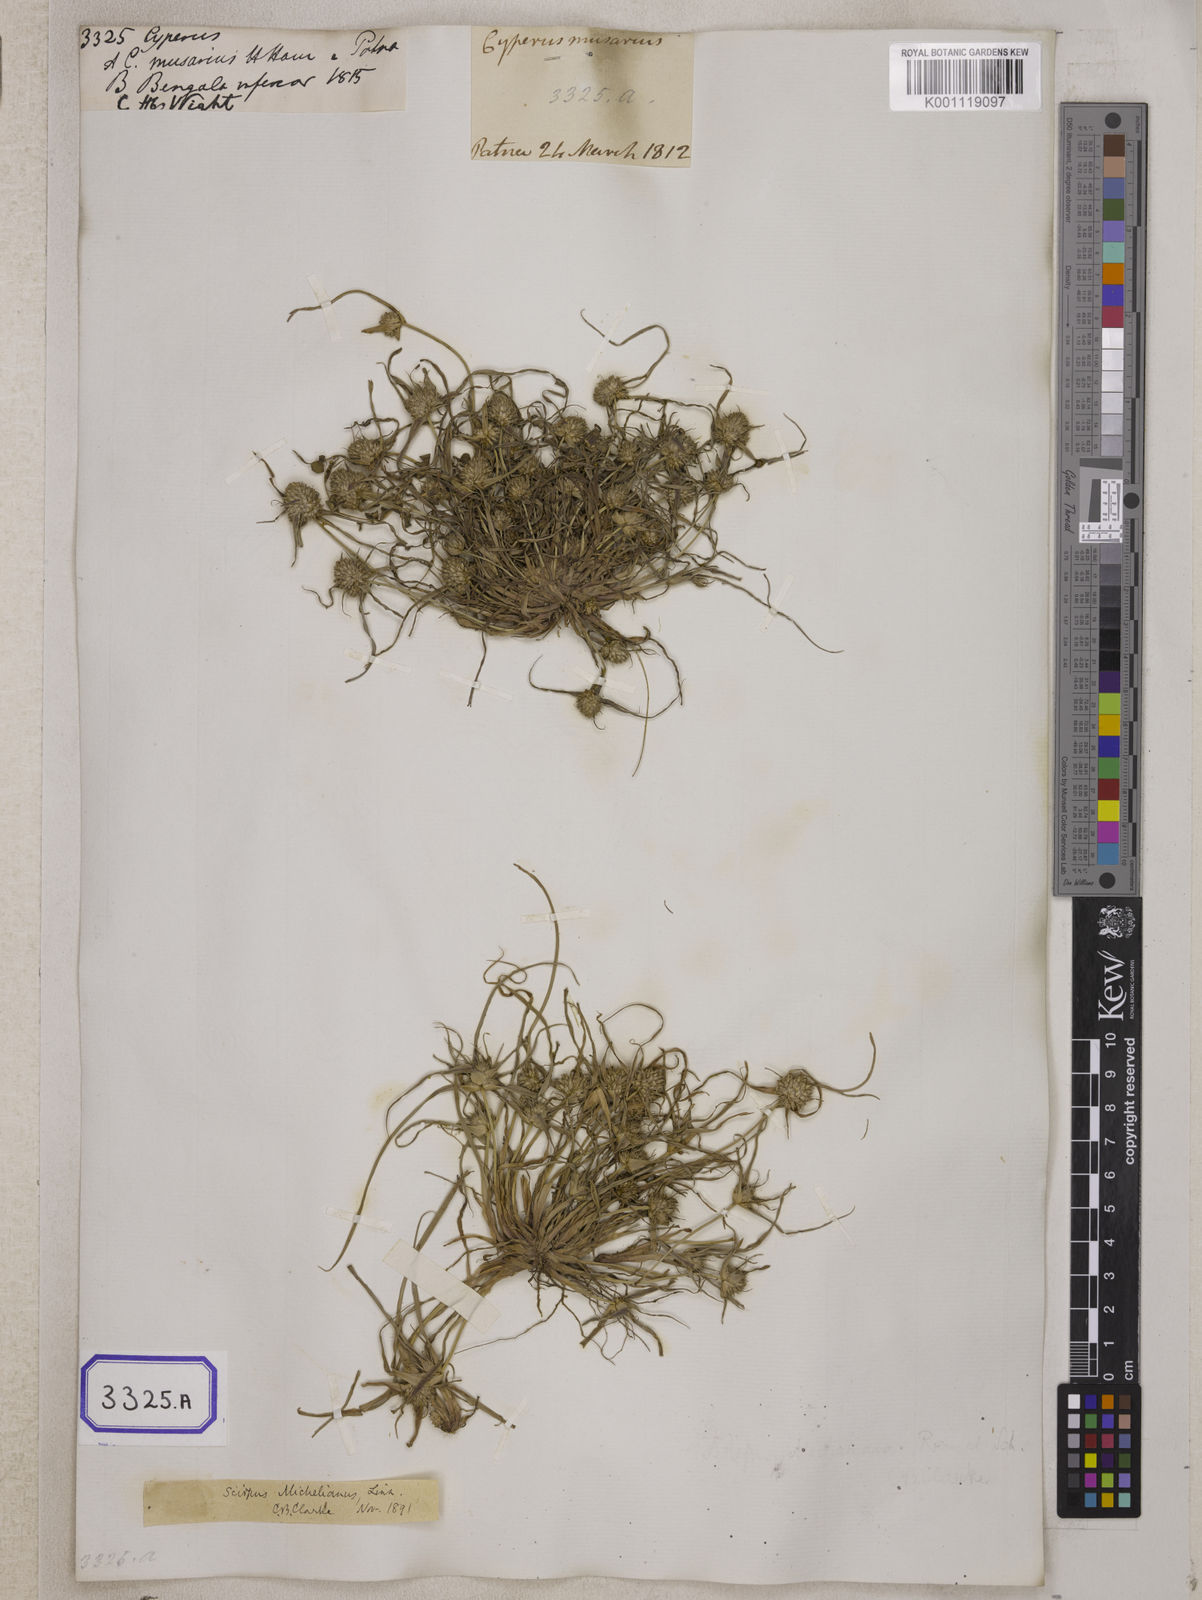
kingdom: Plantae
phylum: Tracheophyta
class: Liliopsida
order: Poales
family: Cyperaceae
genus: Cyperus
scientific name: Cyperus
